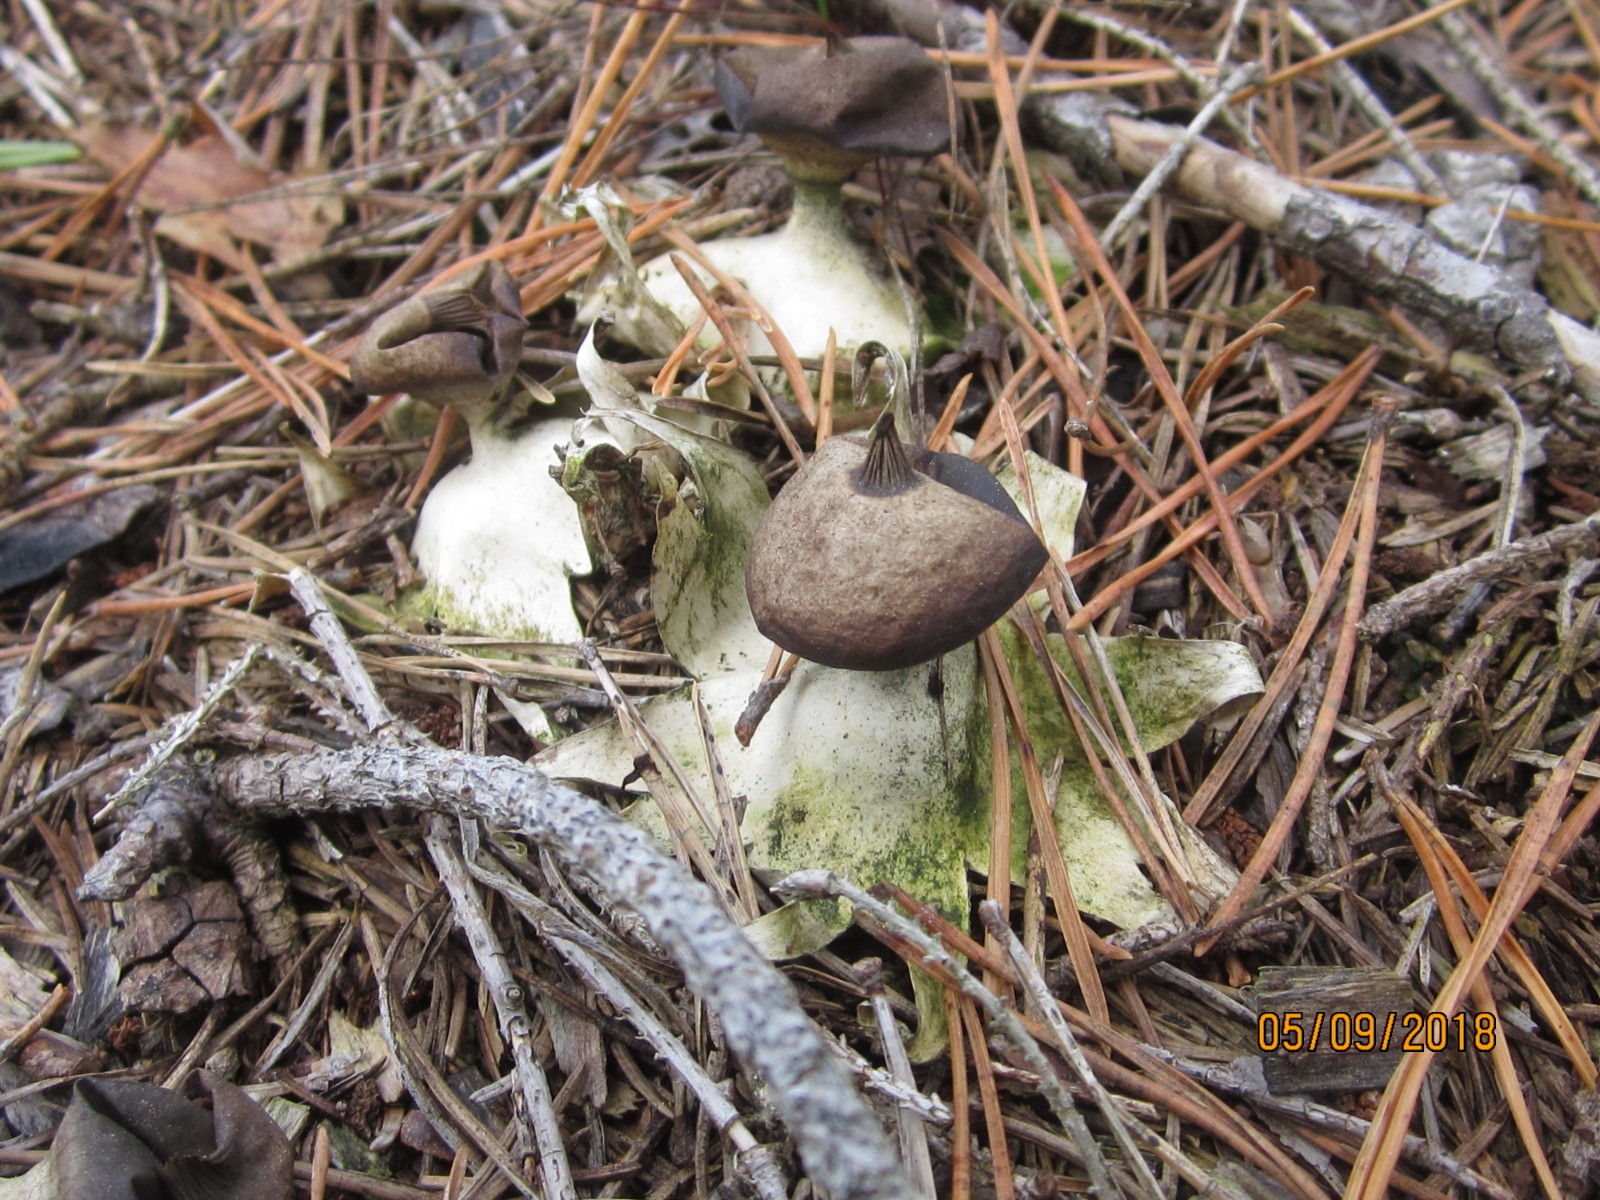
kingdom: Fungi
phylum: Basidiomycota
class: Agaricomycetes
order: Geastrales
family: Geastraceae
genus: Geastrum
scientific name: Geastrum pectinatum
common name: stilket stjernebold
